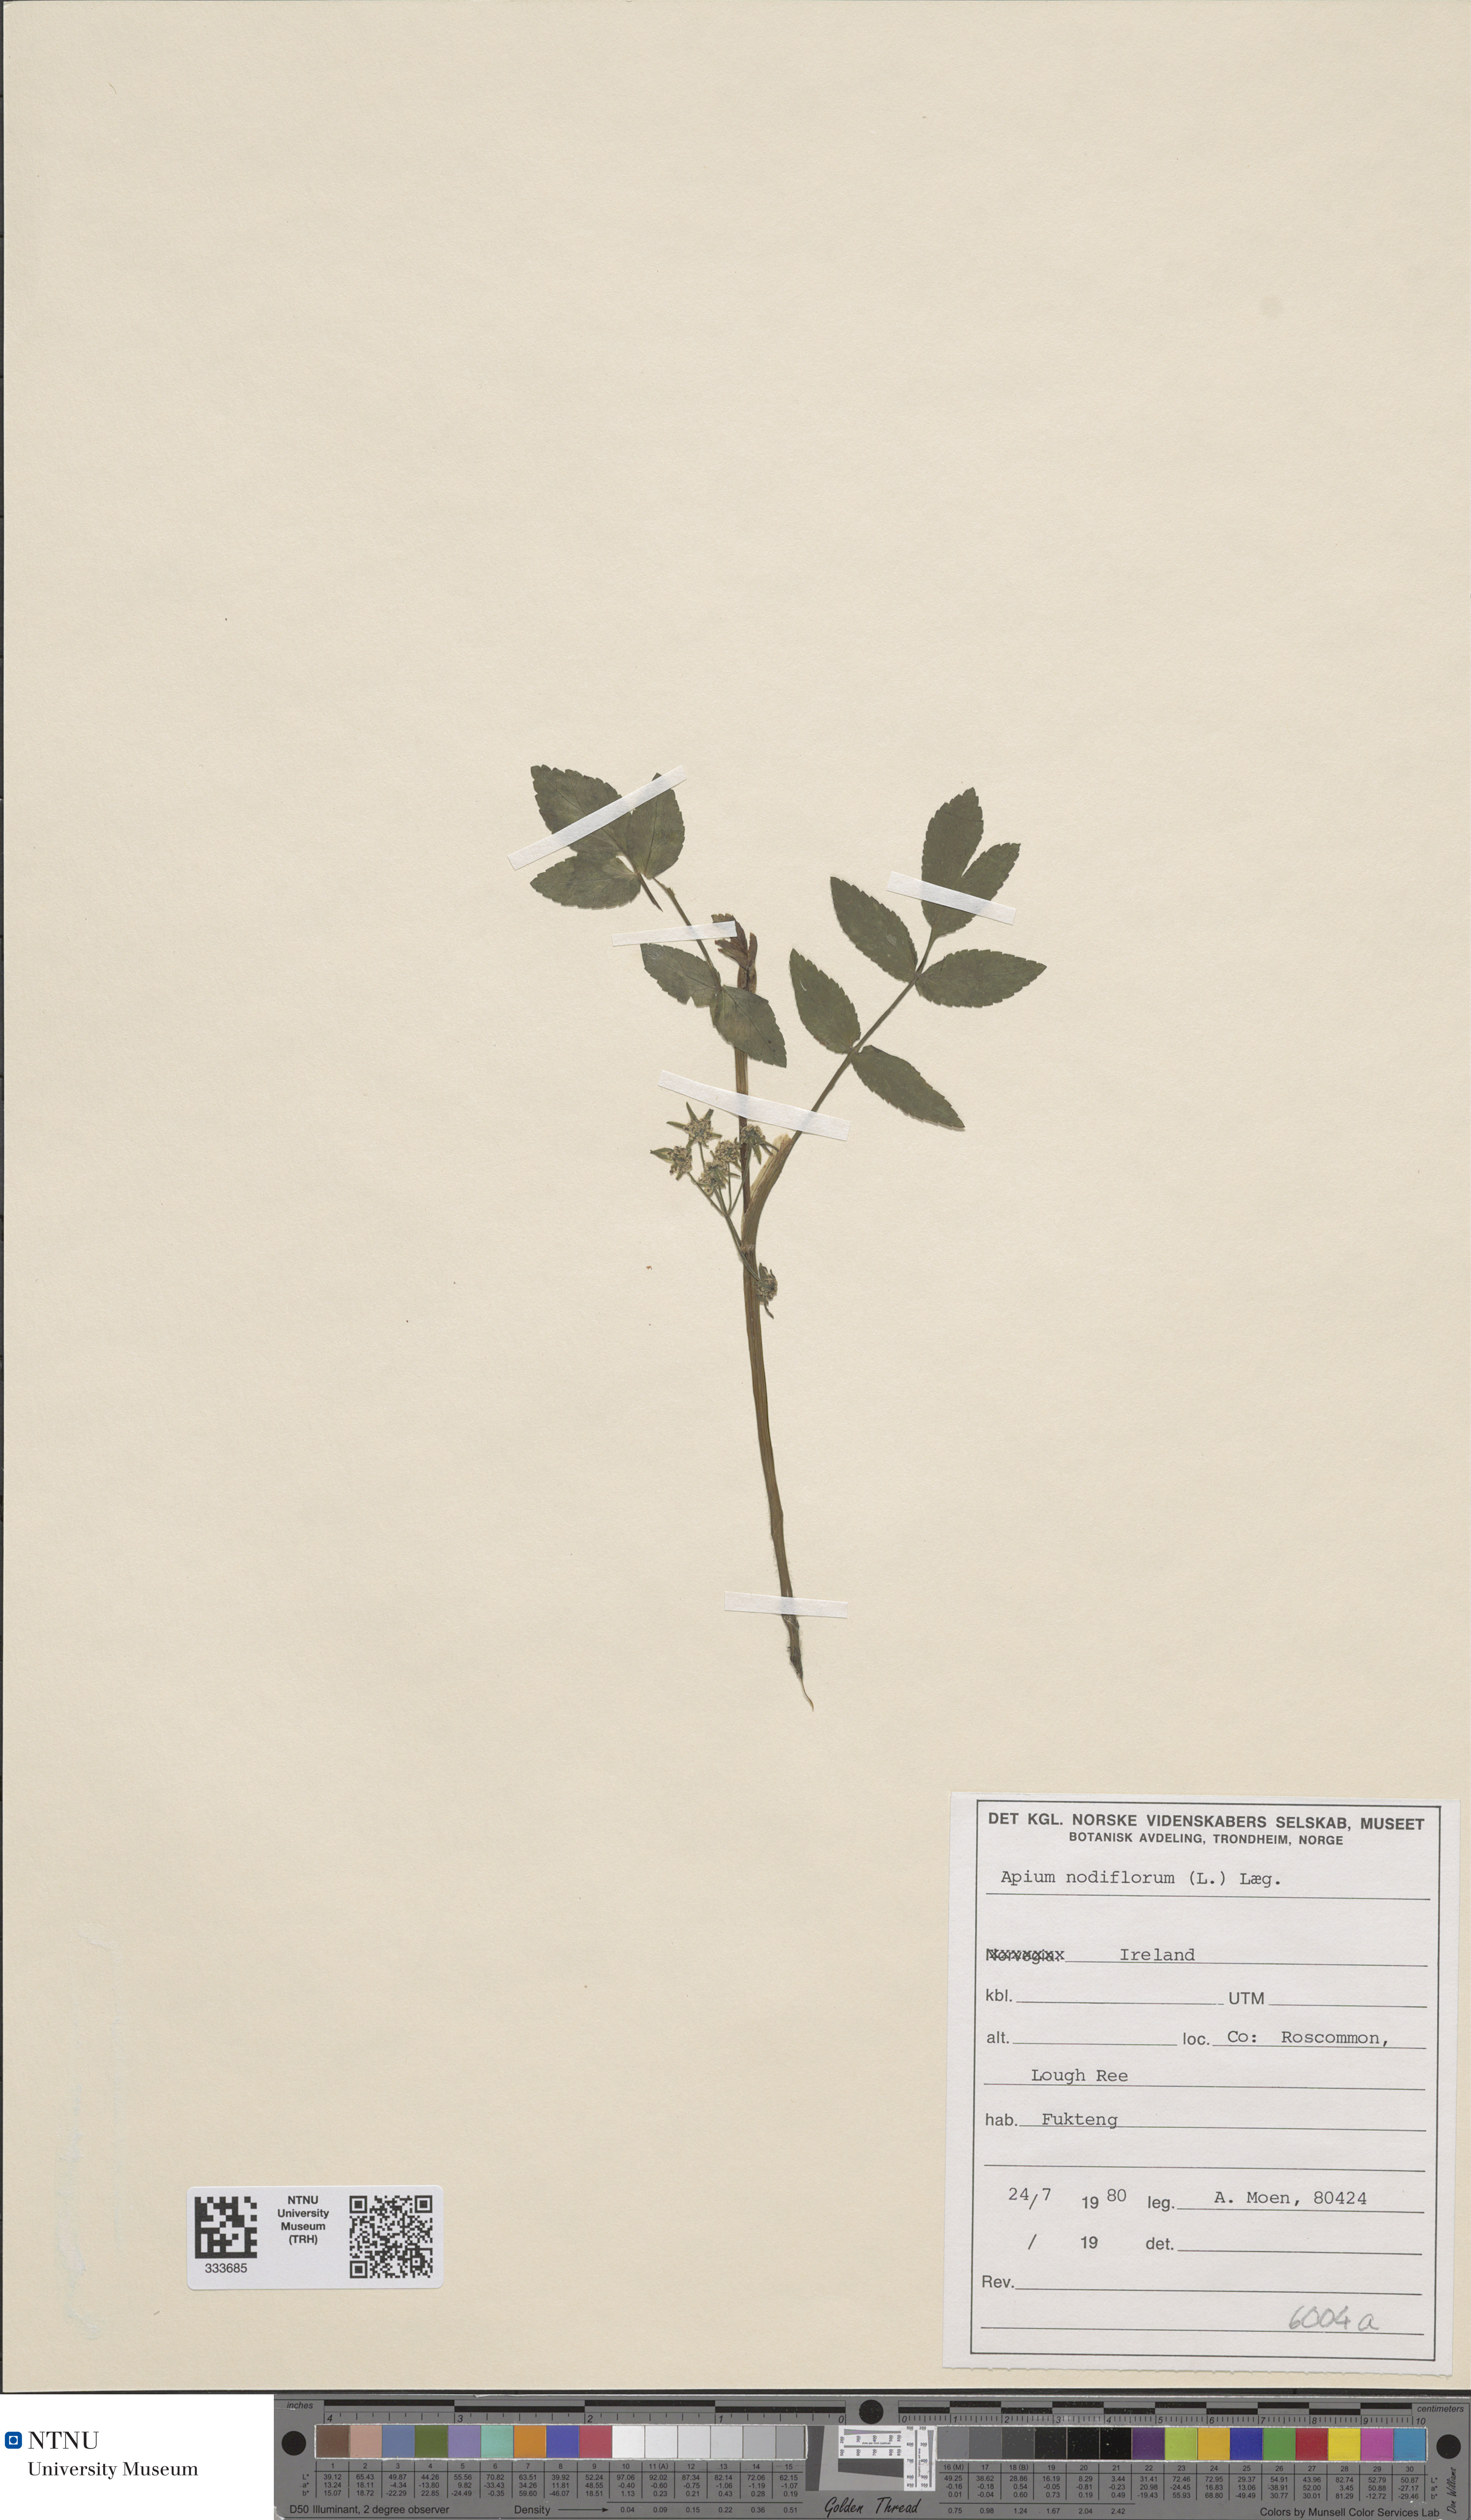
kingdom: Plantae
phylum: Tracheophyta
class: Magnoliopsida
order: Apiales
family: Apiaceae
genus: Helosciadium
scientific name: Helosciadium nodiflorum
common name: Fool's-watercress
